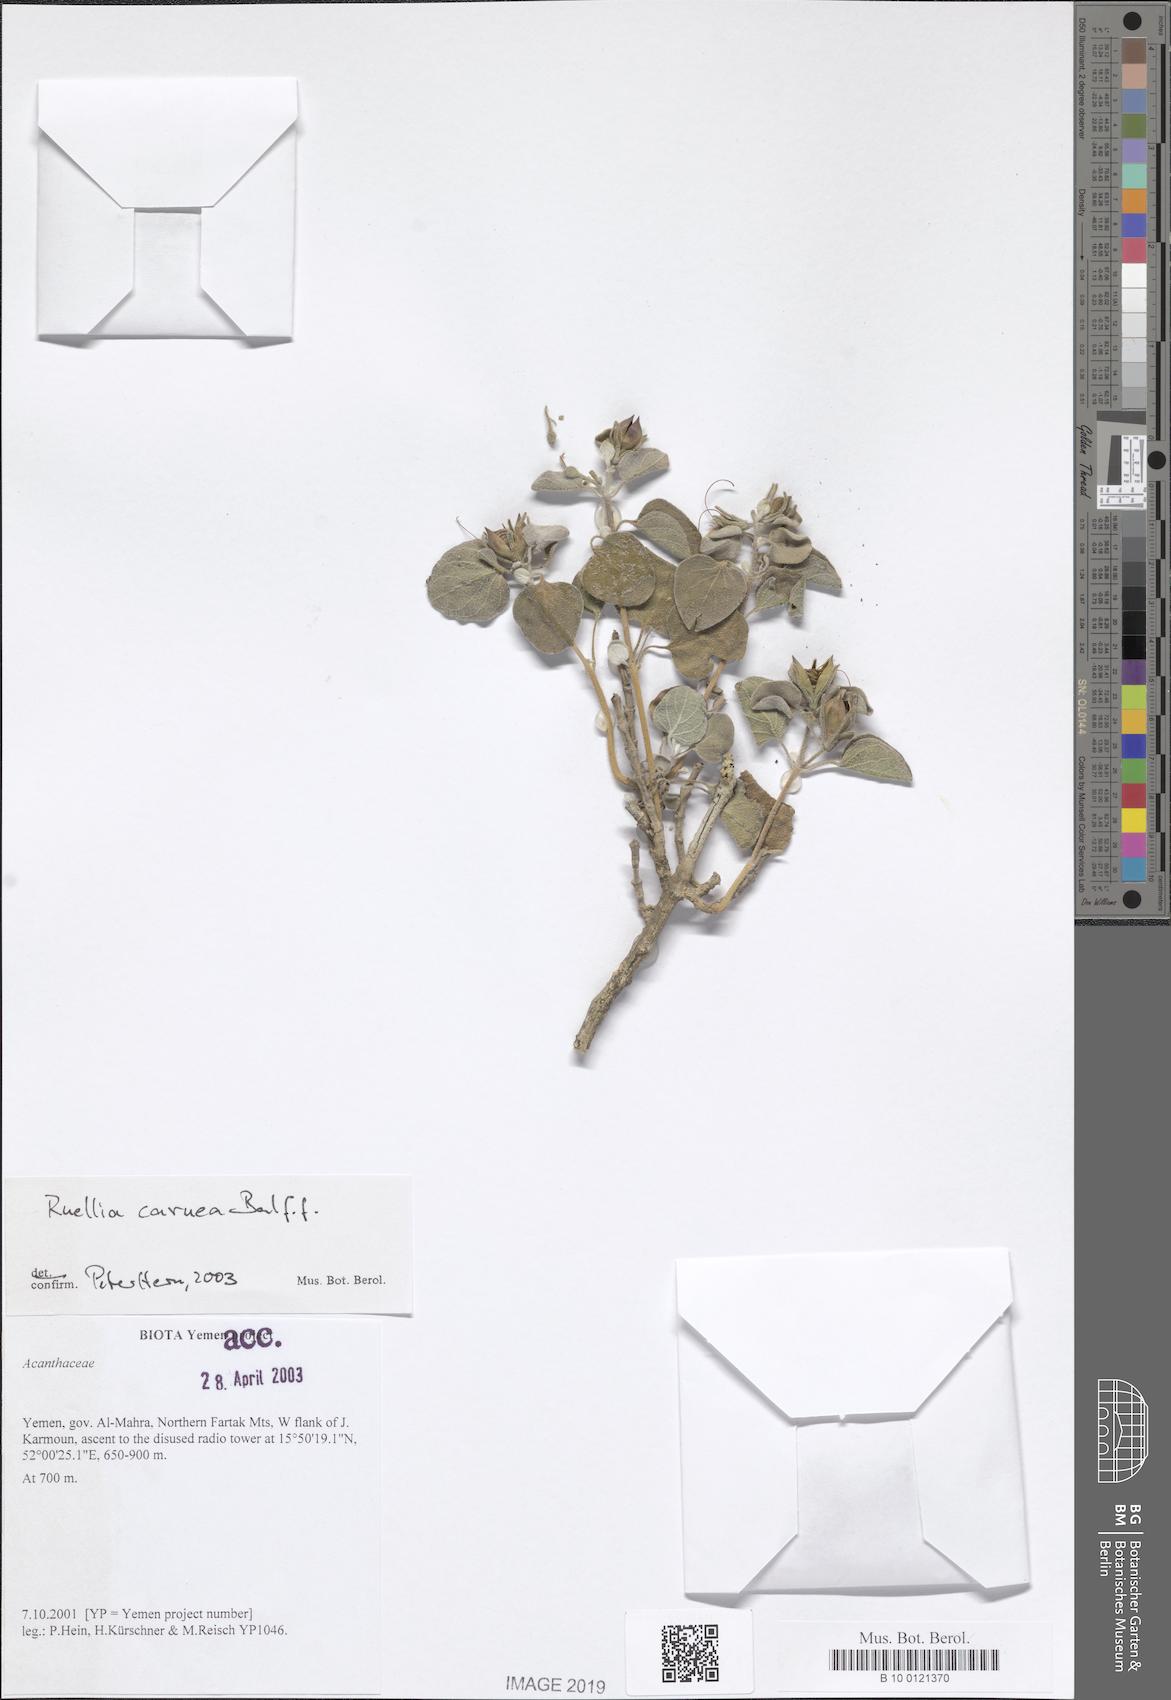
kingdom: Plantae
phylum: Tracheophyta
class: Magnoliopsida
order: Lamiales
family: Acanthaceae
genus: Ruellia
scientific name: Ruellia carnea
